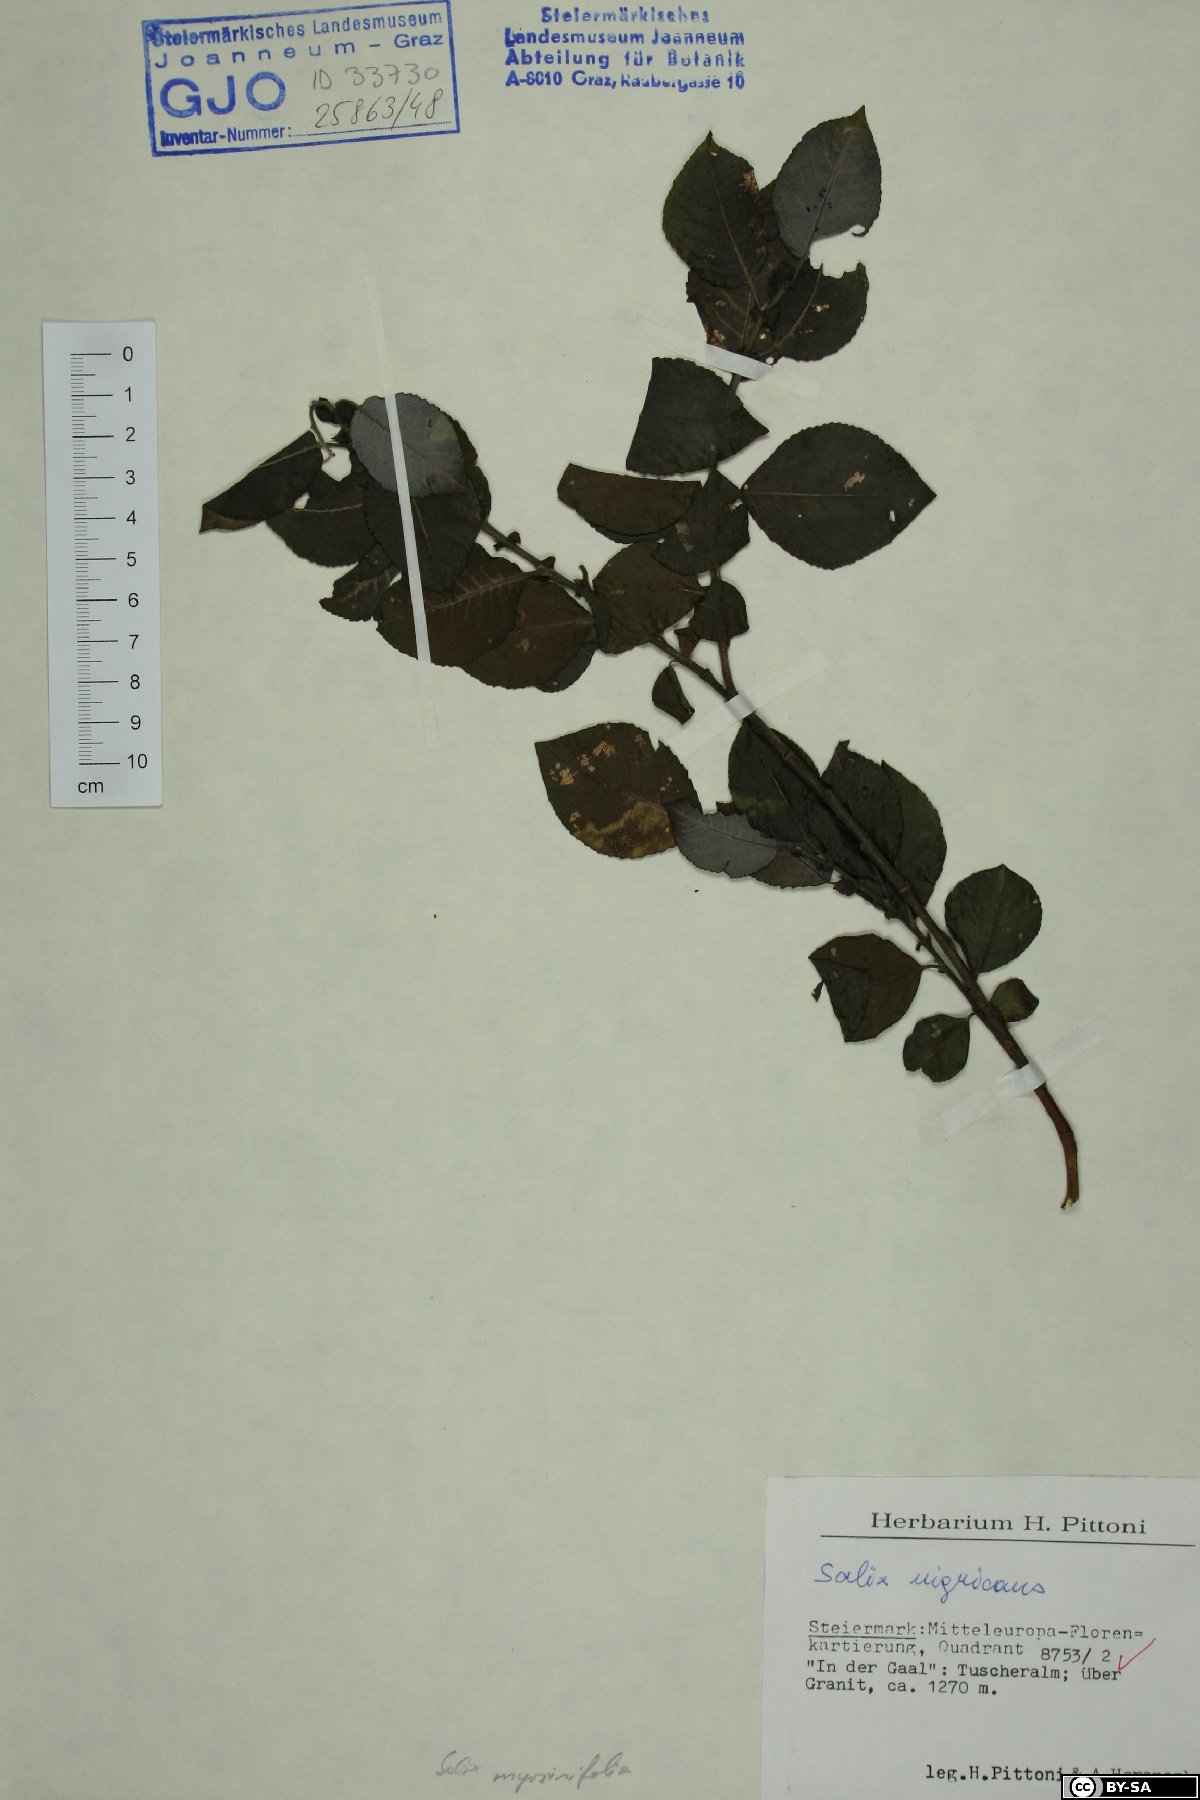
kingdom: Plantae
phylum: Tracheophyta
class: Magnoliopsida
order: Malpighiales
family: Salicaceae
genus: Salix
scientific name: Salix myrsinifolia
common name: Dark-leaved willow
